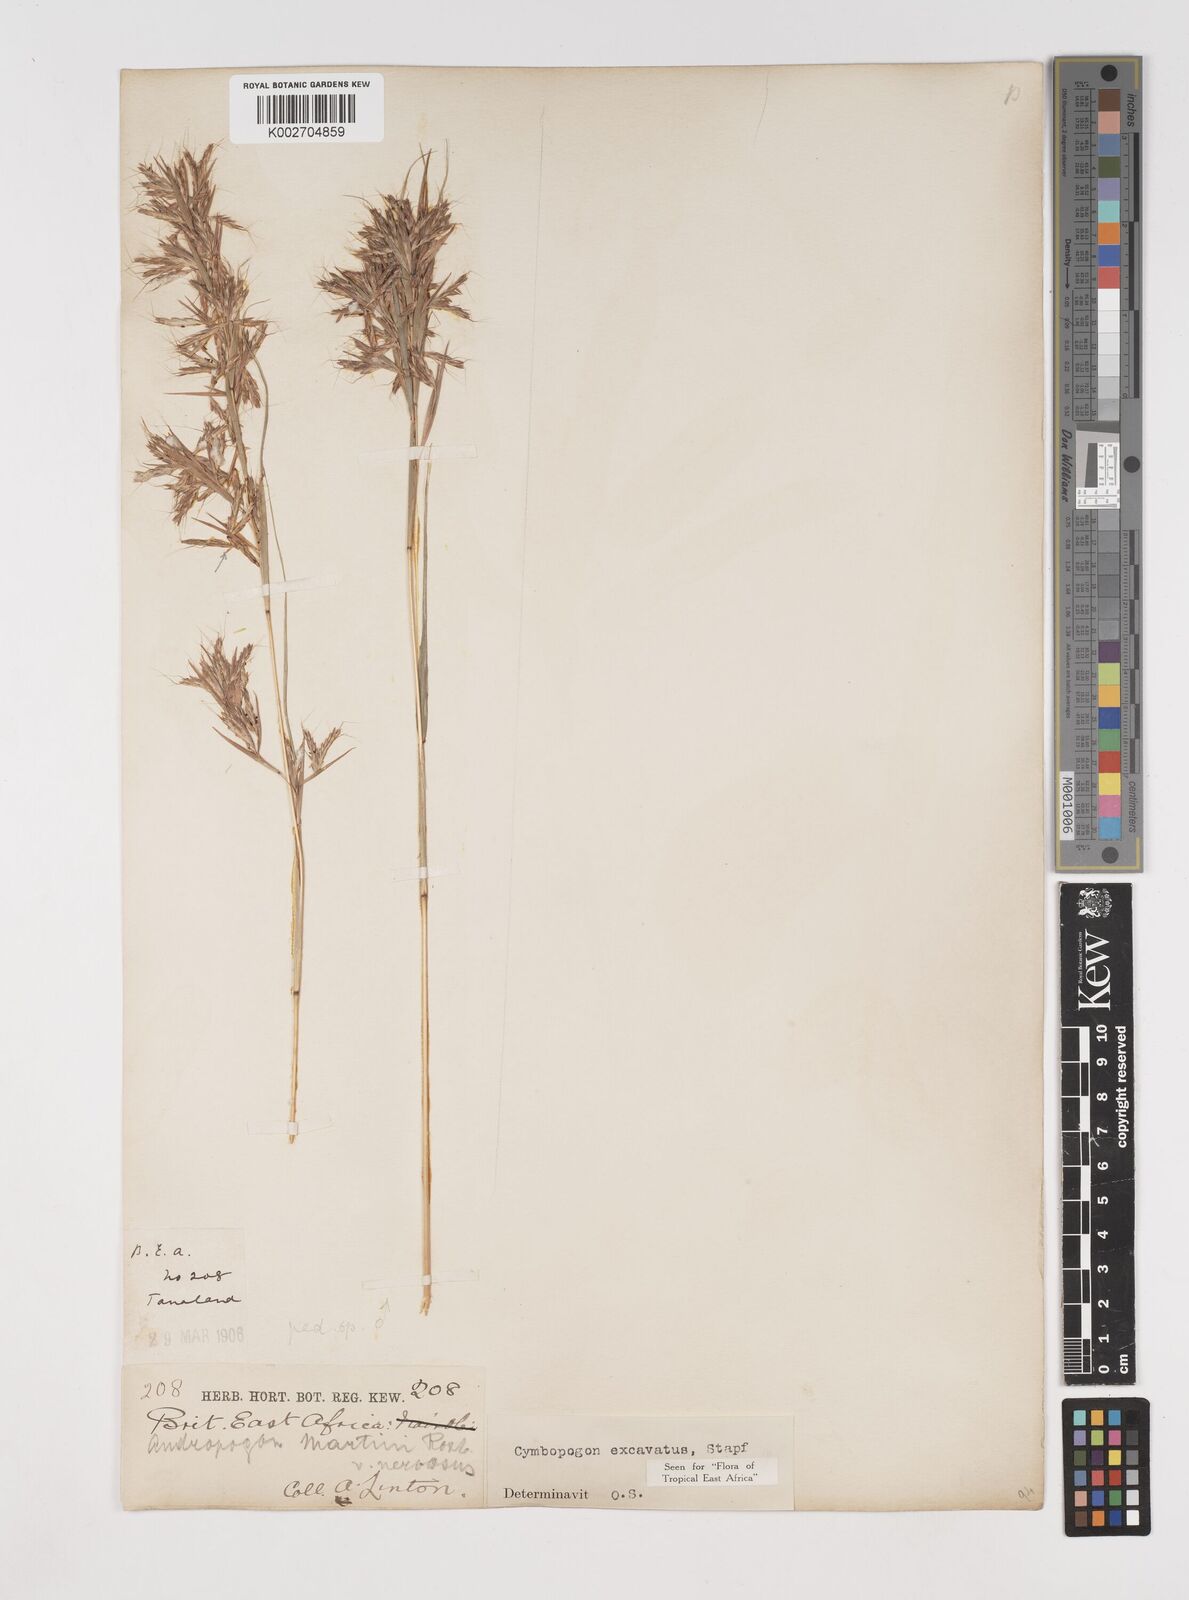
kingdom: Plantae
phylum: Tracheophyta
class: Liliopsida
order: Poales
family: Poaceae
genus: Cymbopogon
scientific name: Cymbopogon caesius
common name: Kachi grass
